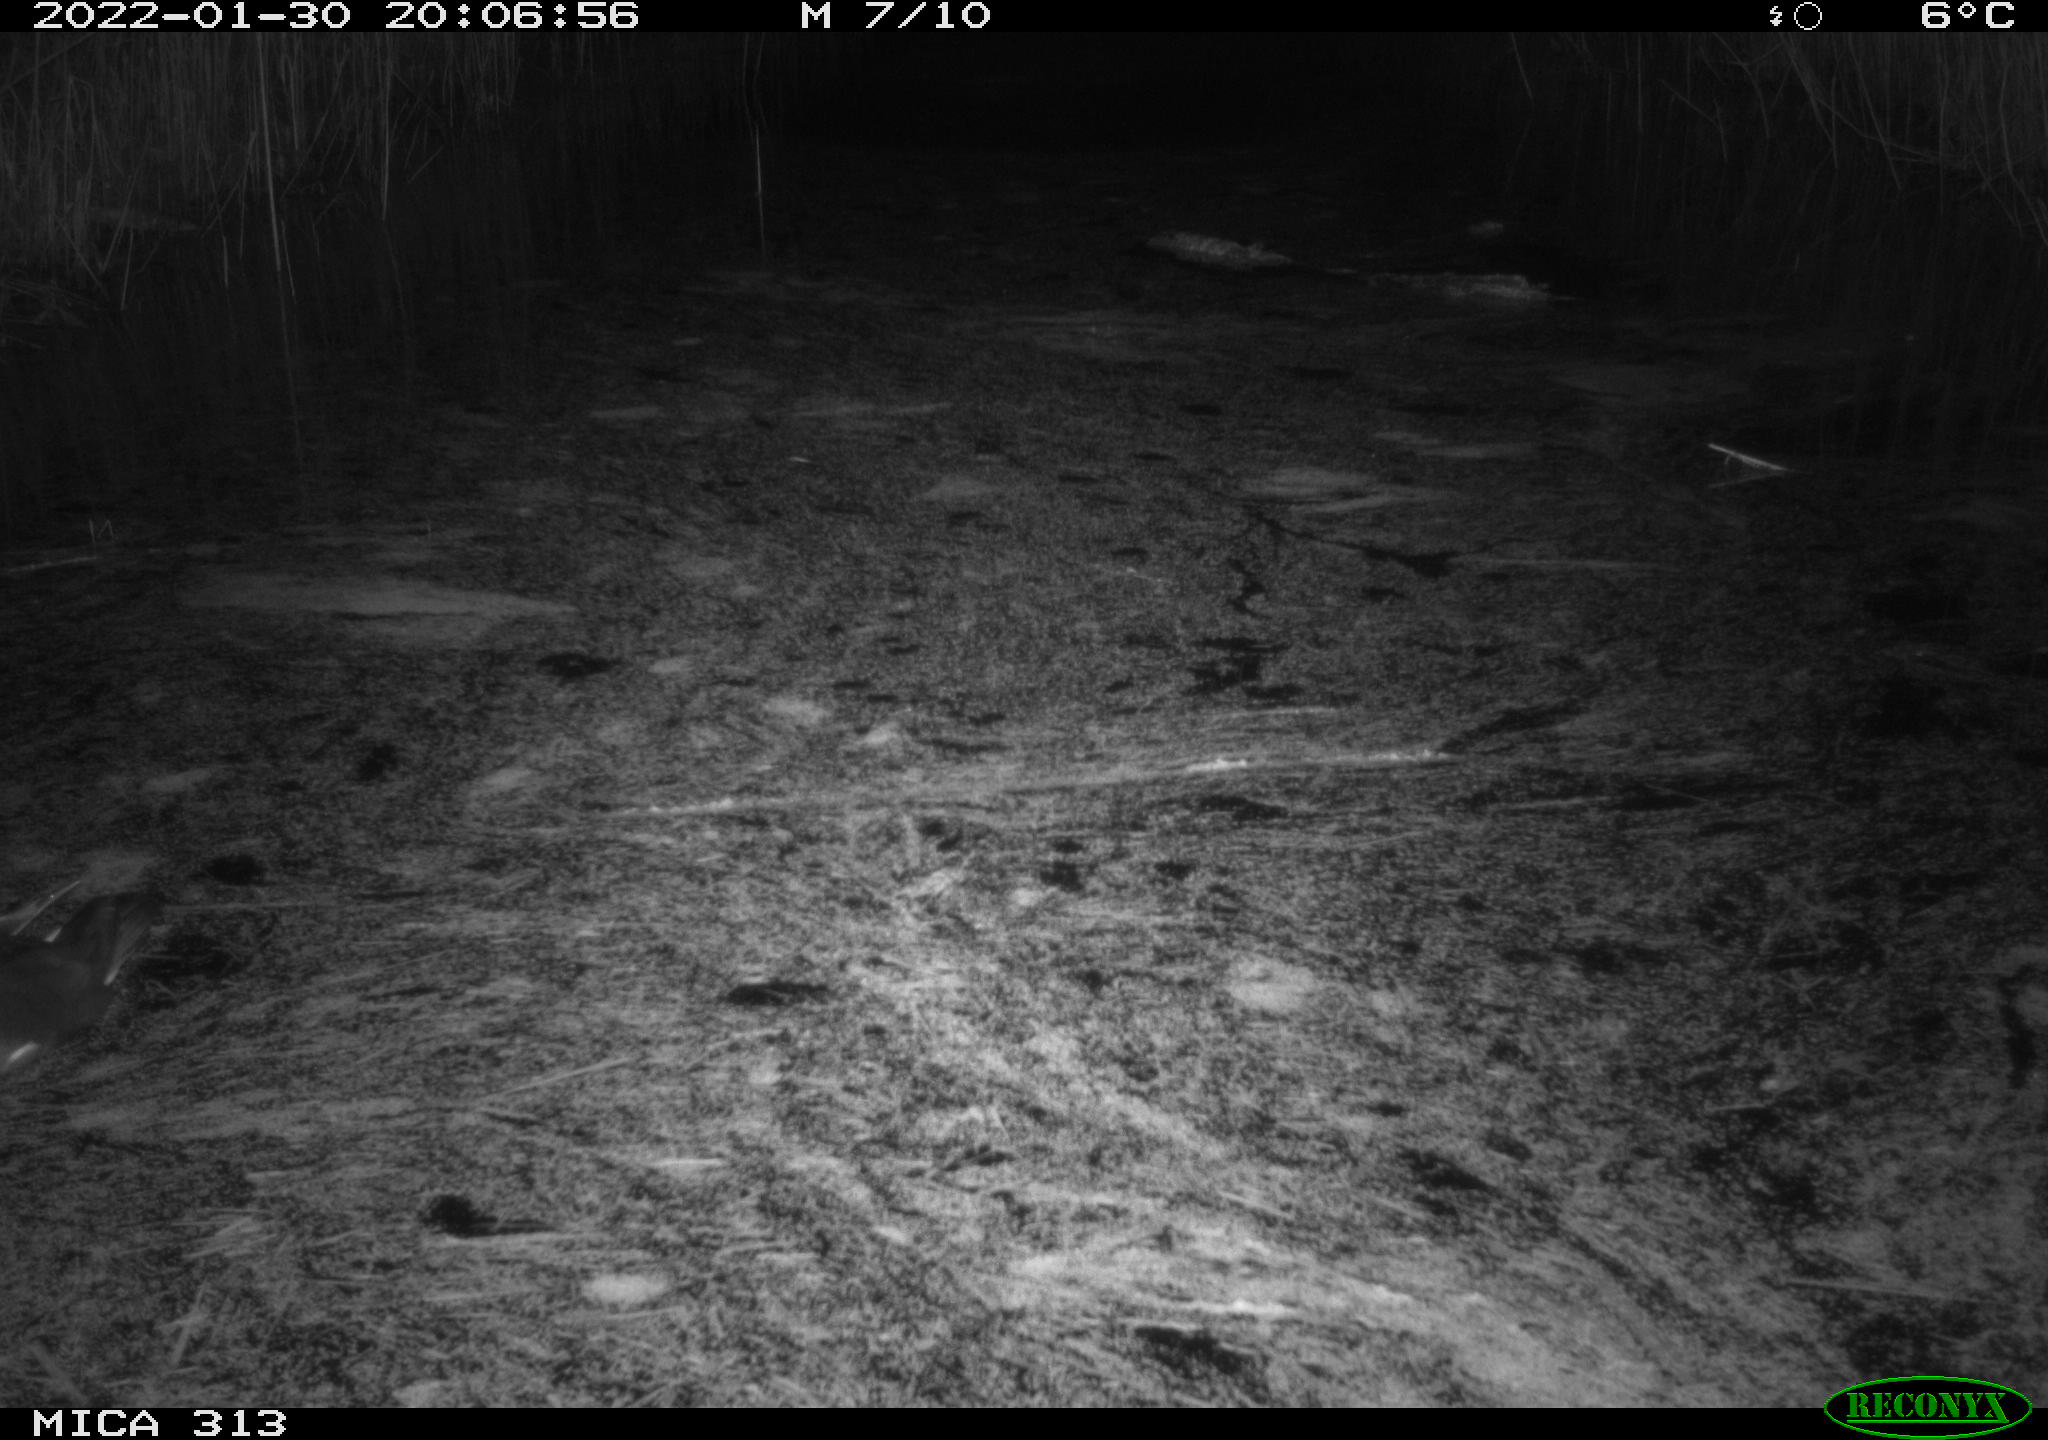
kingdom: Animalia
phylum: Chordata
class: Aves
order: Gruiformes
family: Rallidae
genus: Gallinula
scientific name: Gallinula chloropus
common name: Common moorhen
